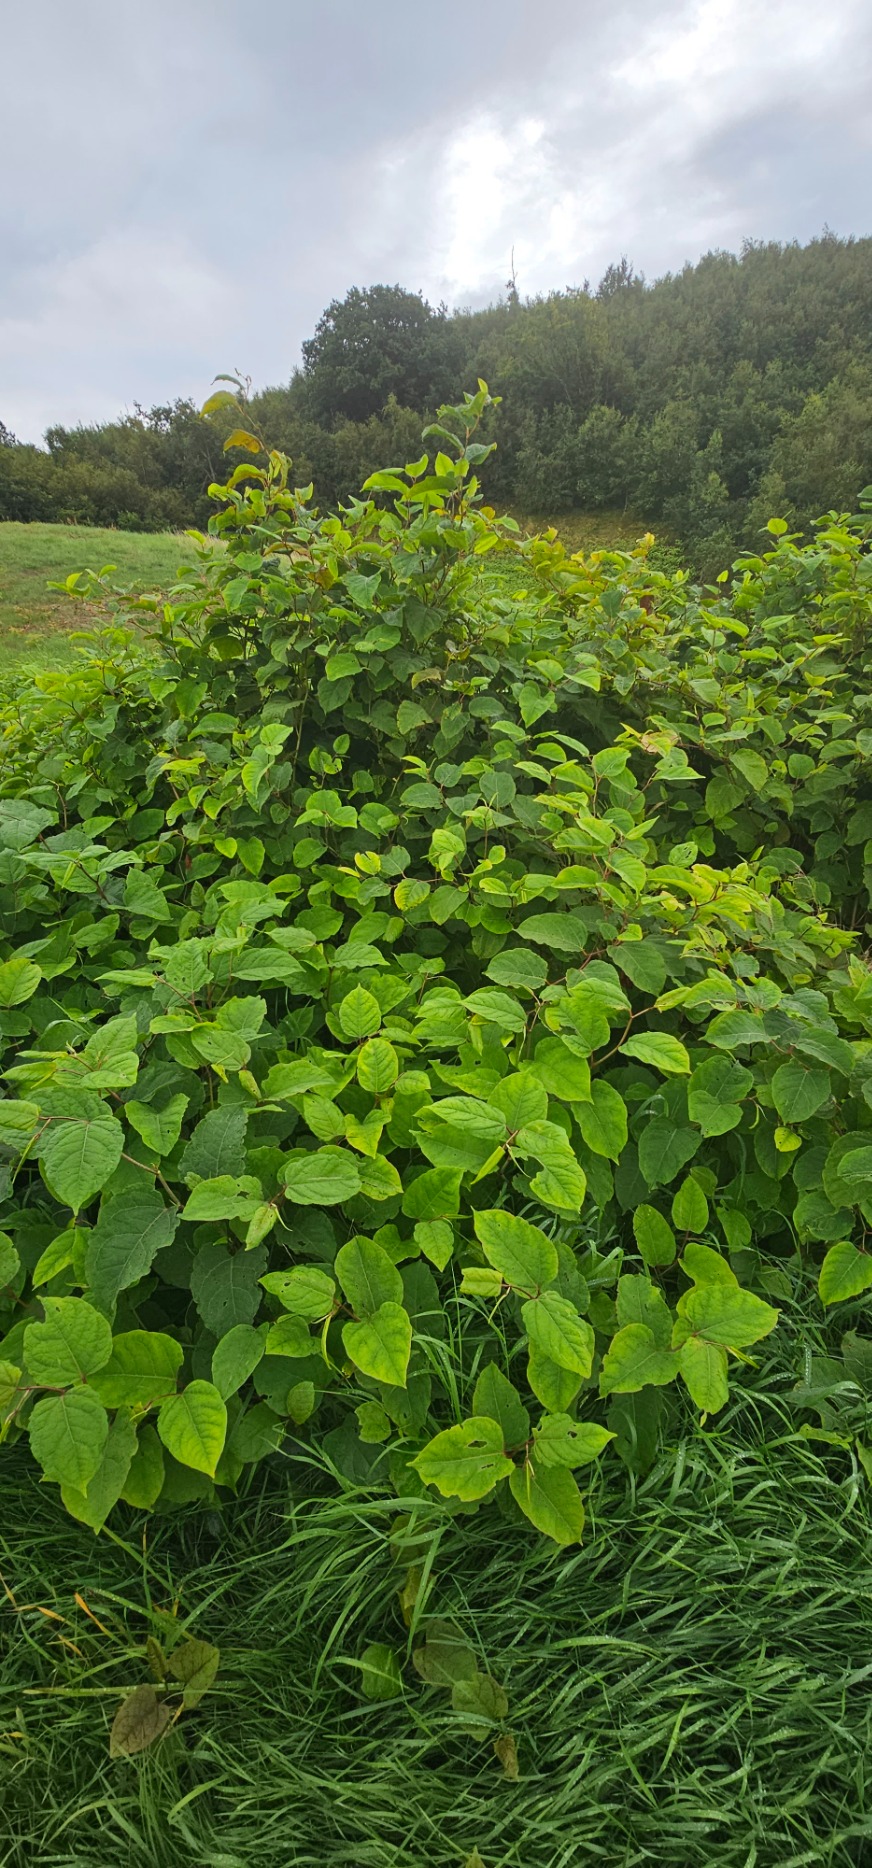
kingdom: Plantae
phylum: Tracheophyta
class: Magnoliopsida
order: Caryophyllales
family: Polygonaceae
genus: Reynoutria
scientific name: Reynoutria bohemica
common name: Hybrid-pileurt
